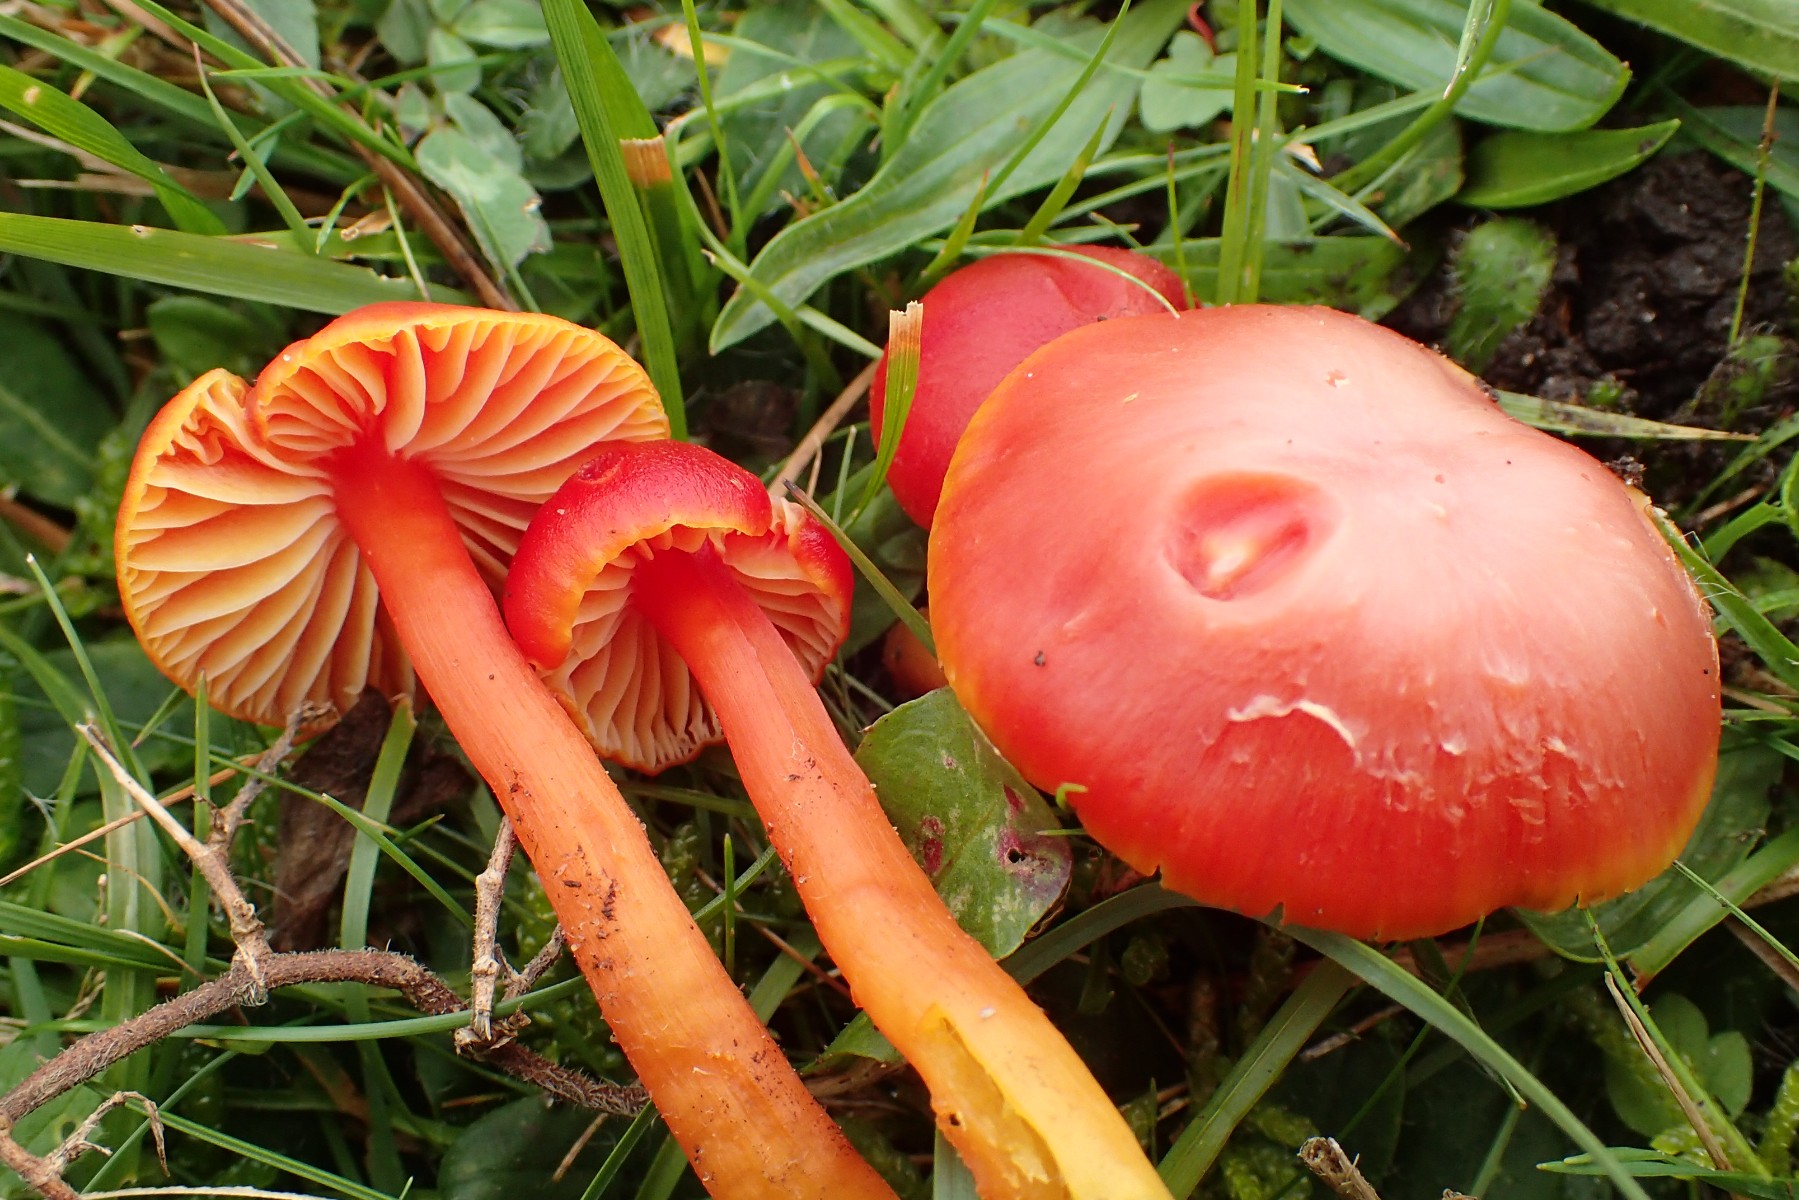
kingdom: Fungi
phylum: Basidiomycota
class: Agaricomycetes
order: Agaricales
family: Hygrophoraceae
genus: Hygrocybe
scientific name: Hygrocybe coccinea
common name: cinnober-vokshat
